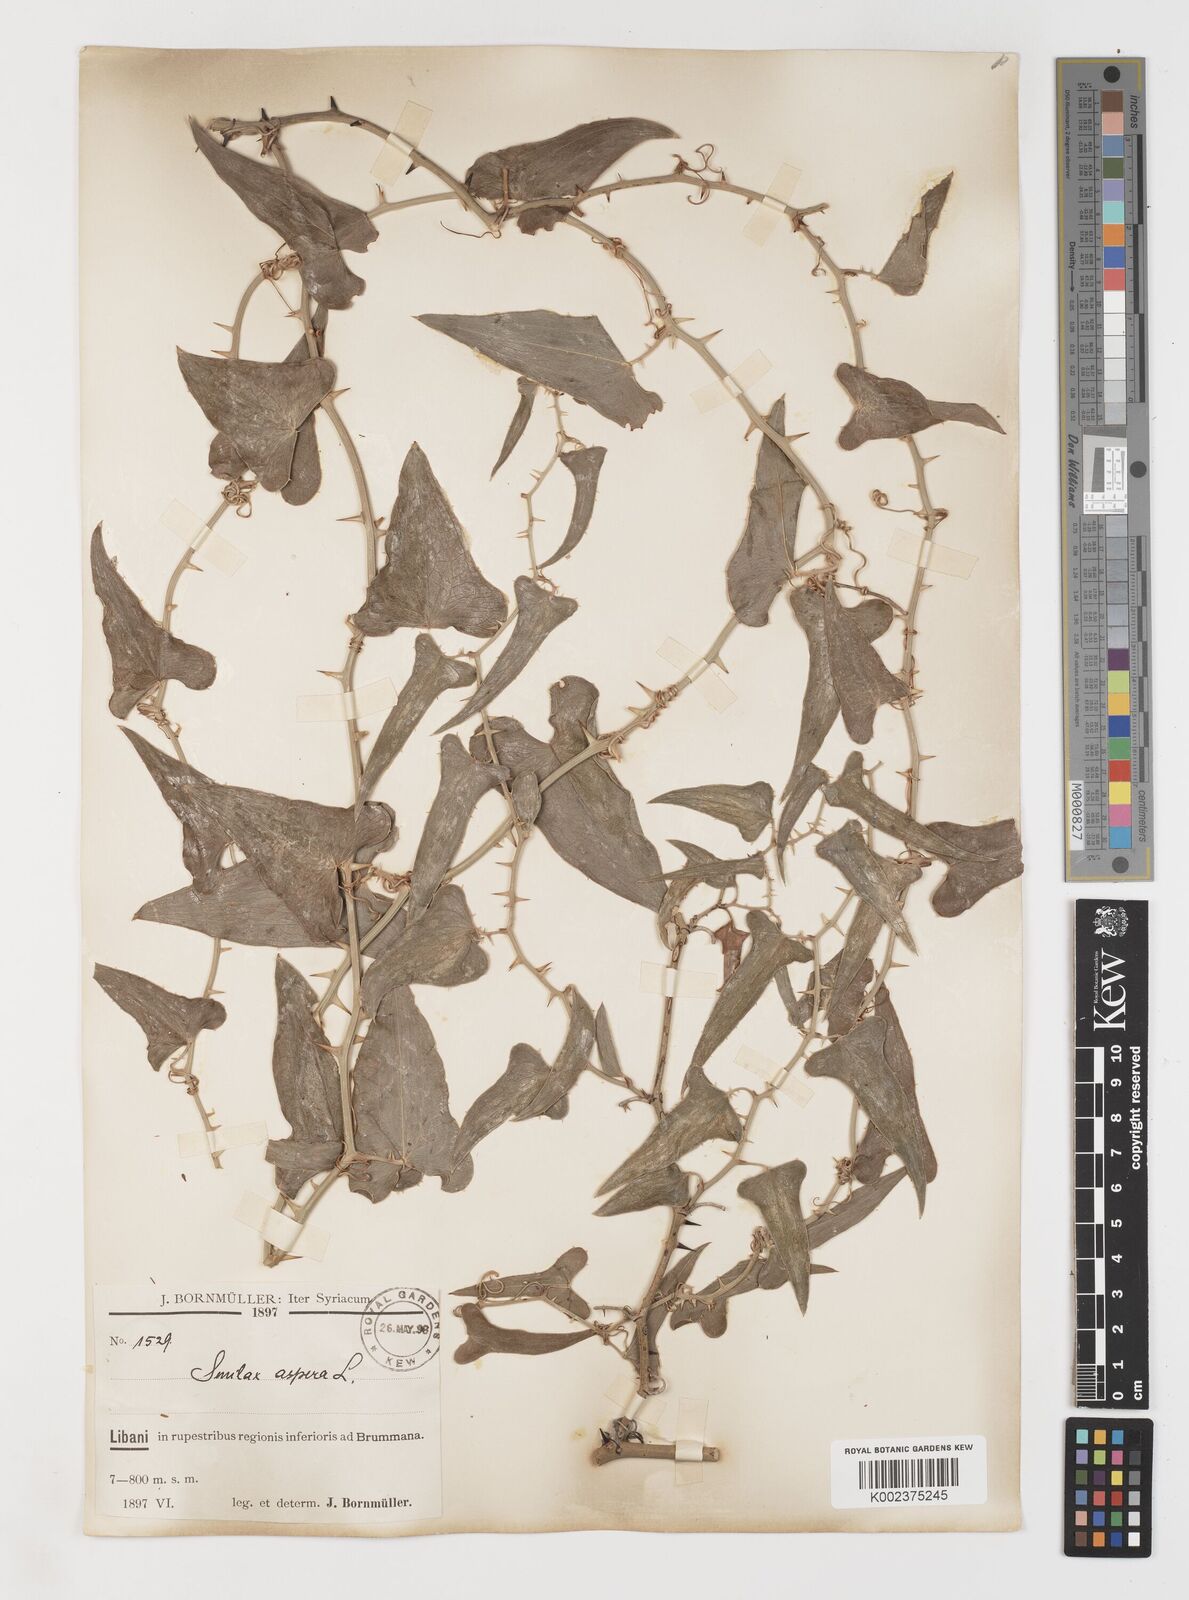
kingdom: Plantae
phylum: Tracheophyta
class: Liliopsida
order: Liliales
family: Smilacaceae
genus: Smilax
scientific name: Smilax aspera
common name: Common smilax
